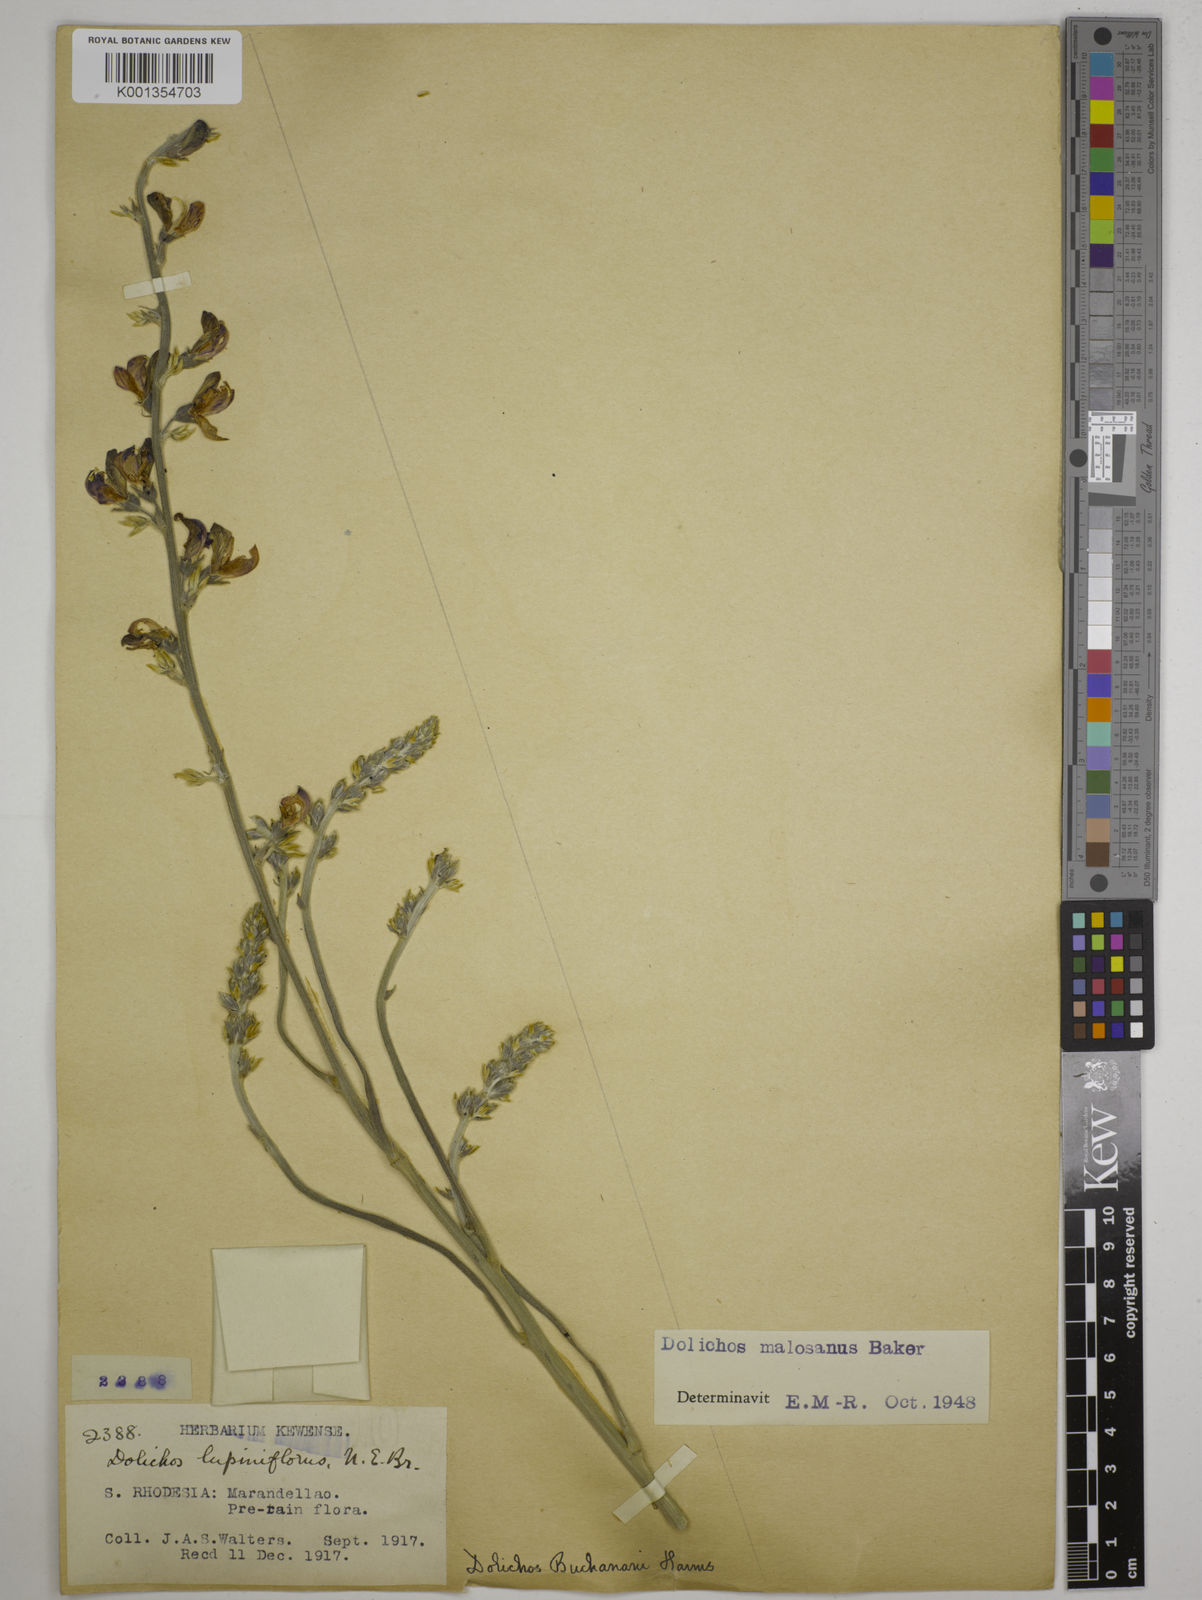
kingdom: Plantae
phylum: Tracheophyta
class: Magnoliopsida
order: Fabales
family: Fabaceae
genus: Dolichos
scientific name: Dolichos kilimandscharicus
